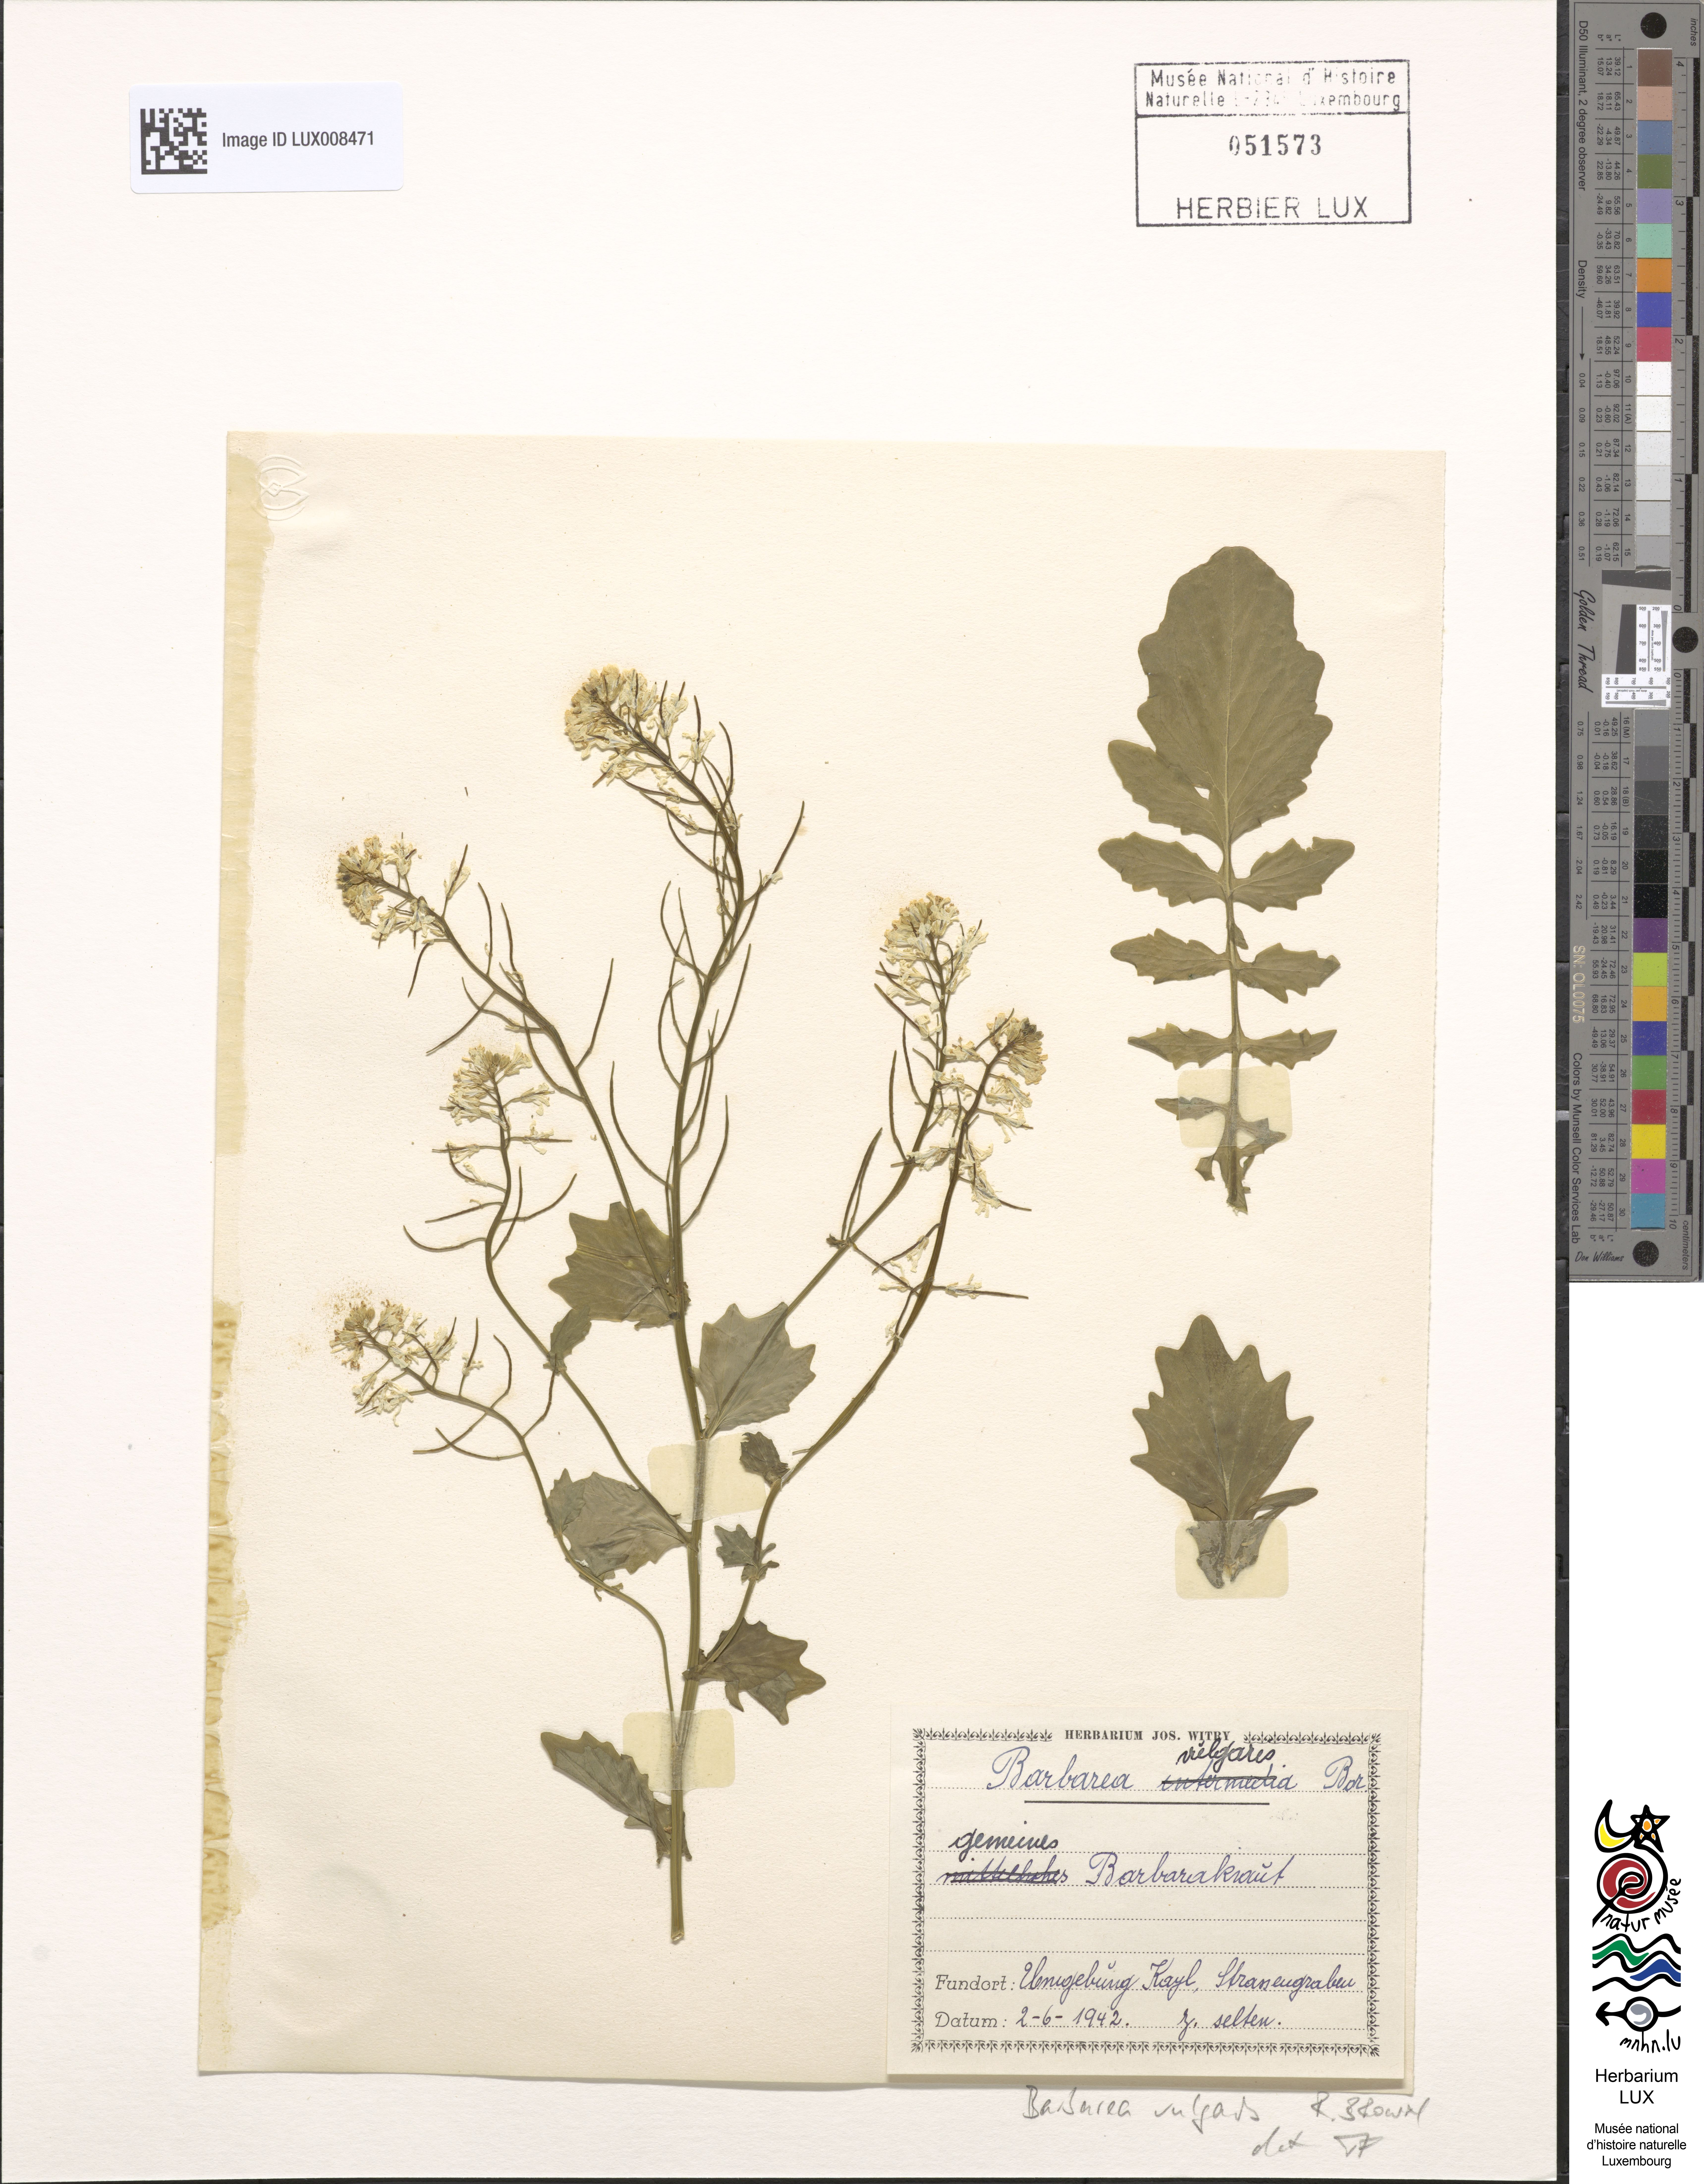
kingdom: Plantae
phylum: Tracheophyta
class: Magnoliopsida
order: Brassicales
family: Brassicaceae
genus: Barbarea
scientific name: Barbarea vulgaris
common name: Cressy-greens
